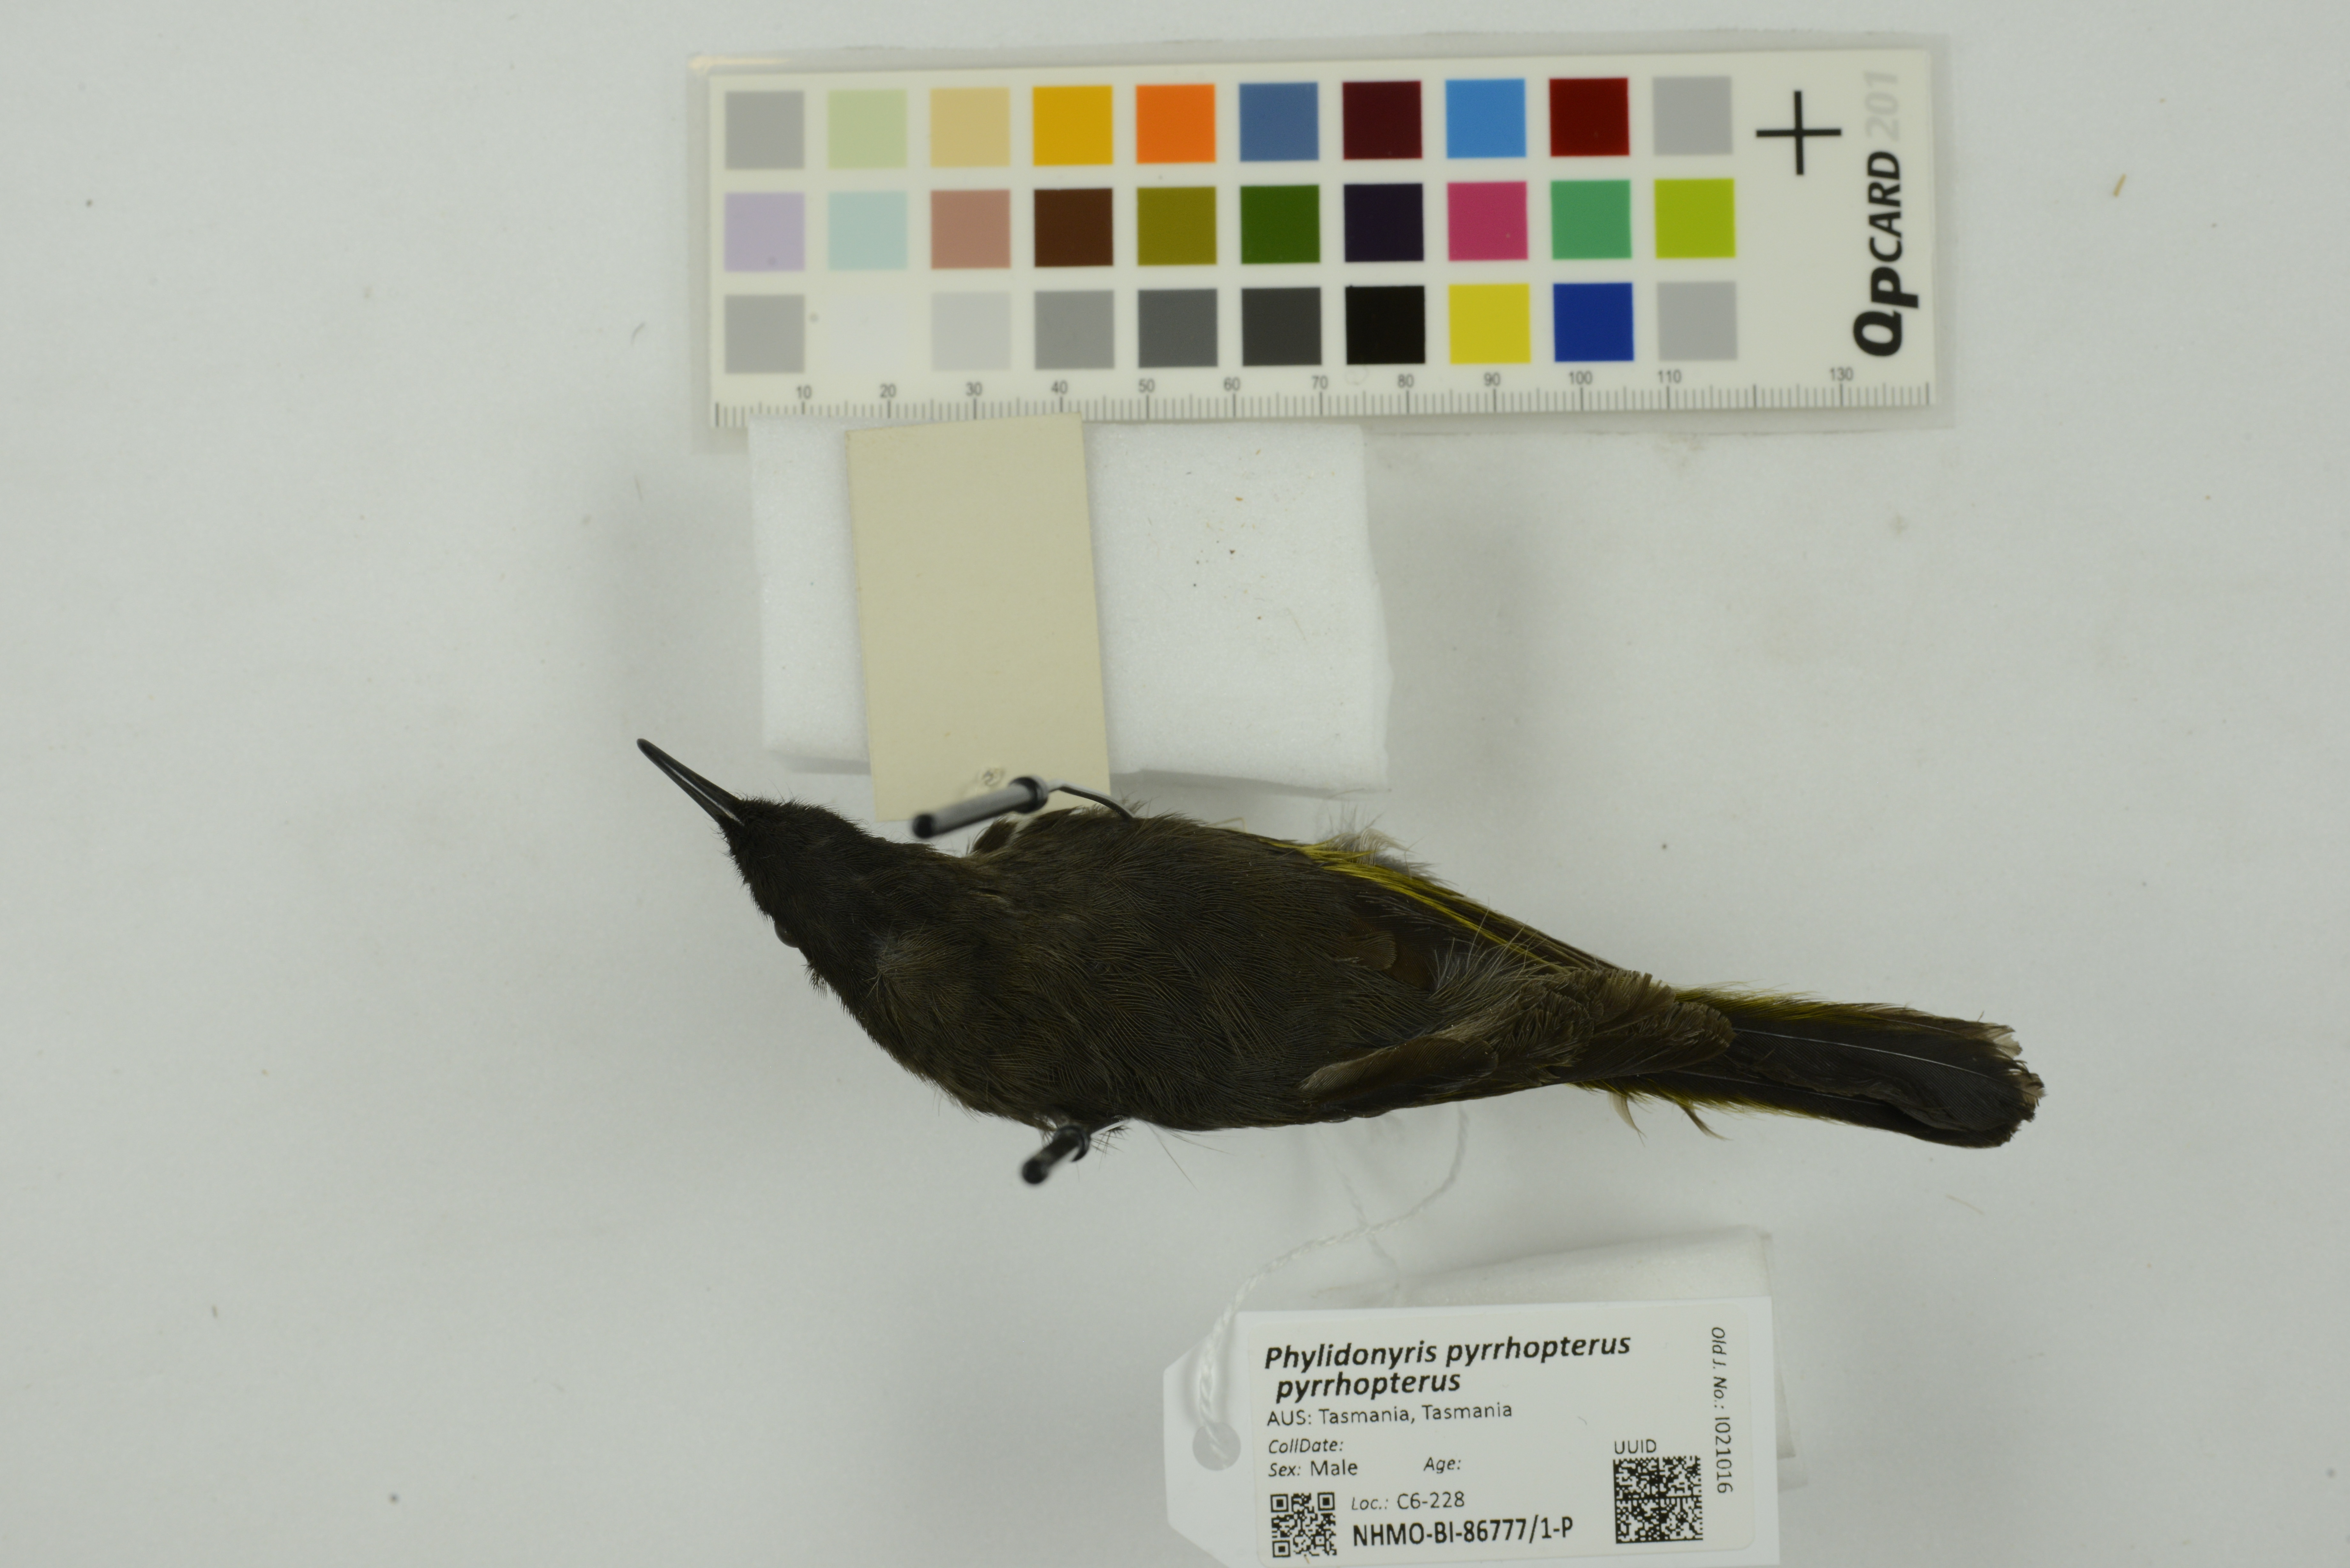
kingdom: Animalia
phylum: Chordata
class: Aves
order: Passeriformes
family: Meliphagidae
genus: Phylidonyris
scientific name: Phylidonyris pyrrhopterus
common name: Crescent honeyeater
